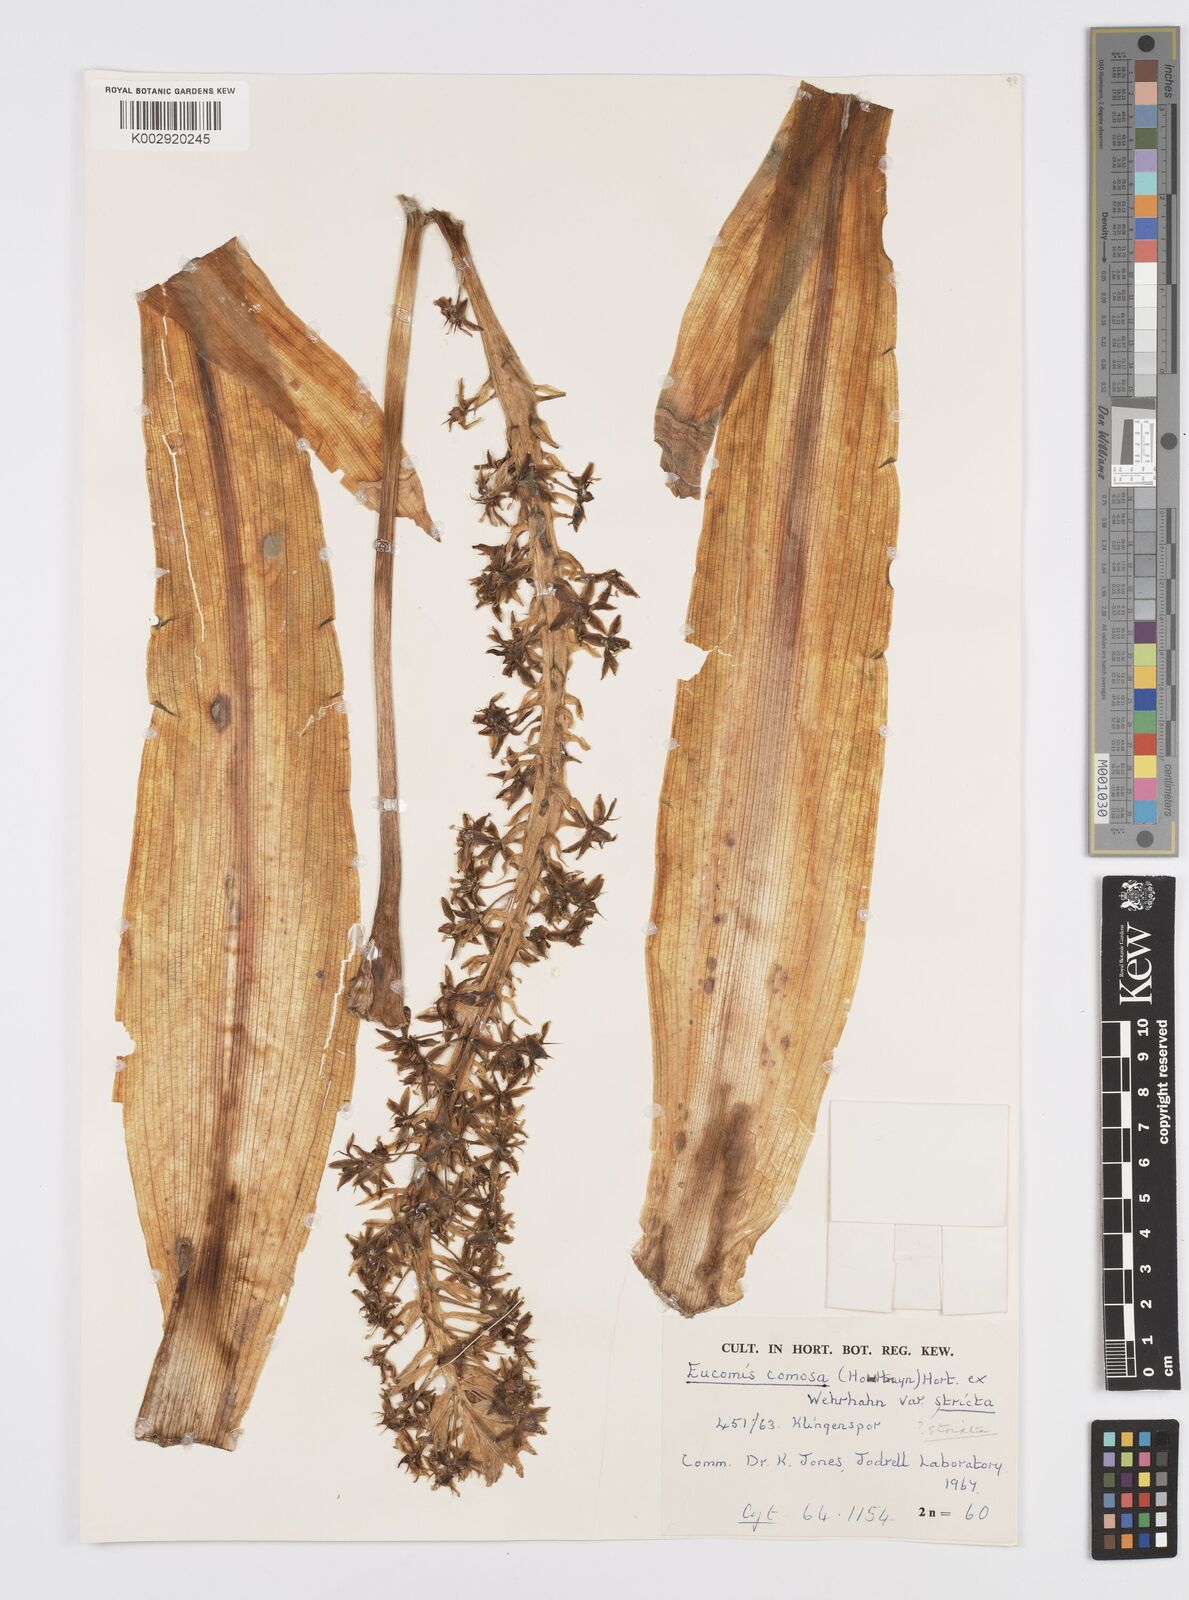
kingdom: Plantae
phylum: Tracheophyta
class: Liliopsida
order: Asparagales
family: Asparagaceae
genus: Eucomis
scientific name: Eucomis comosa
